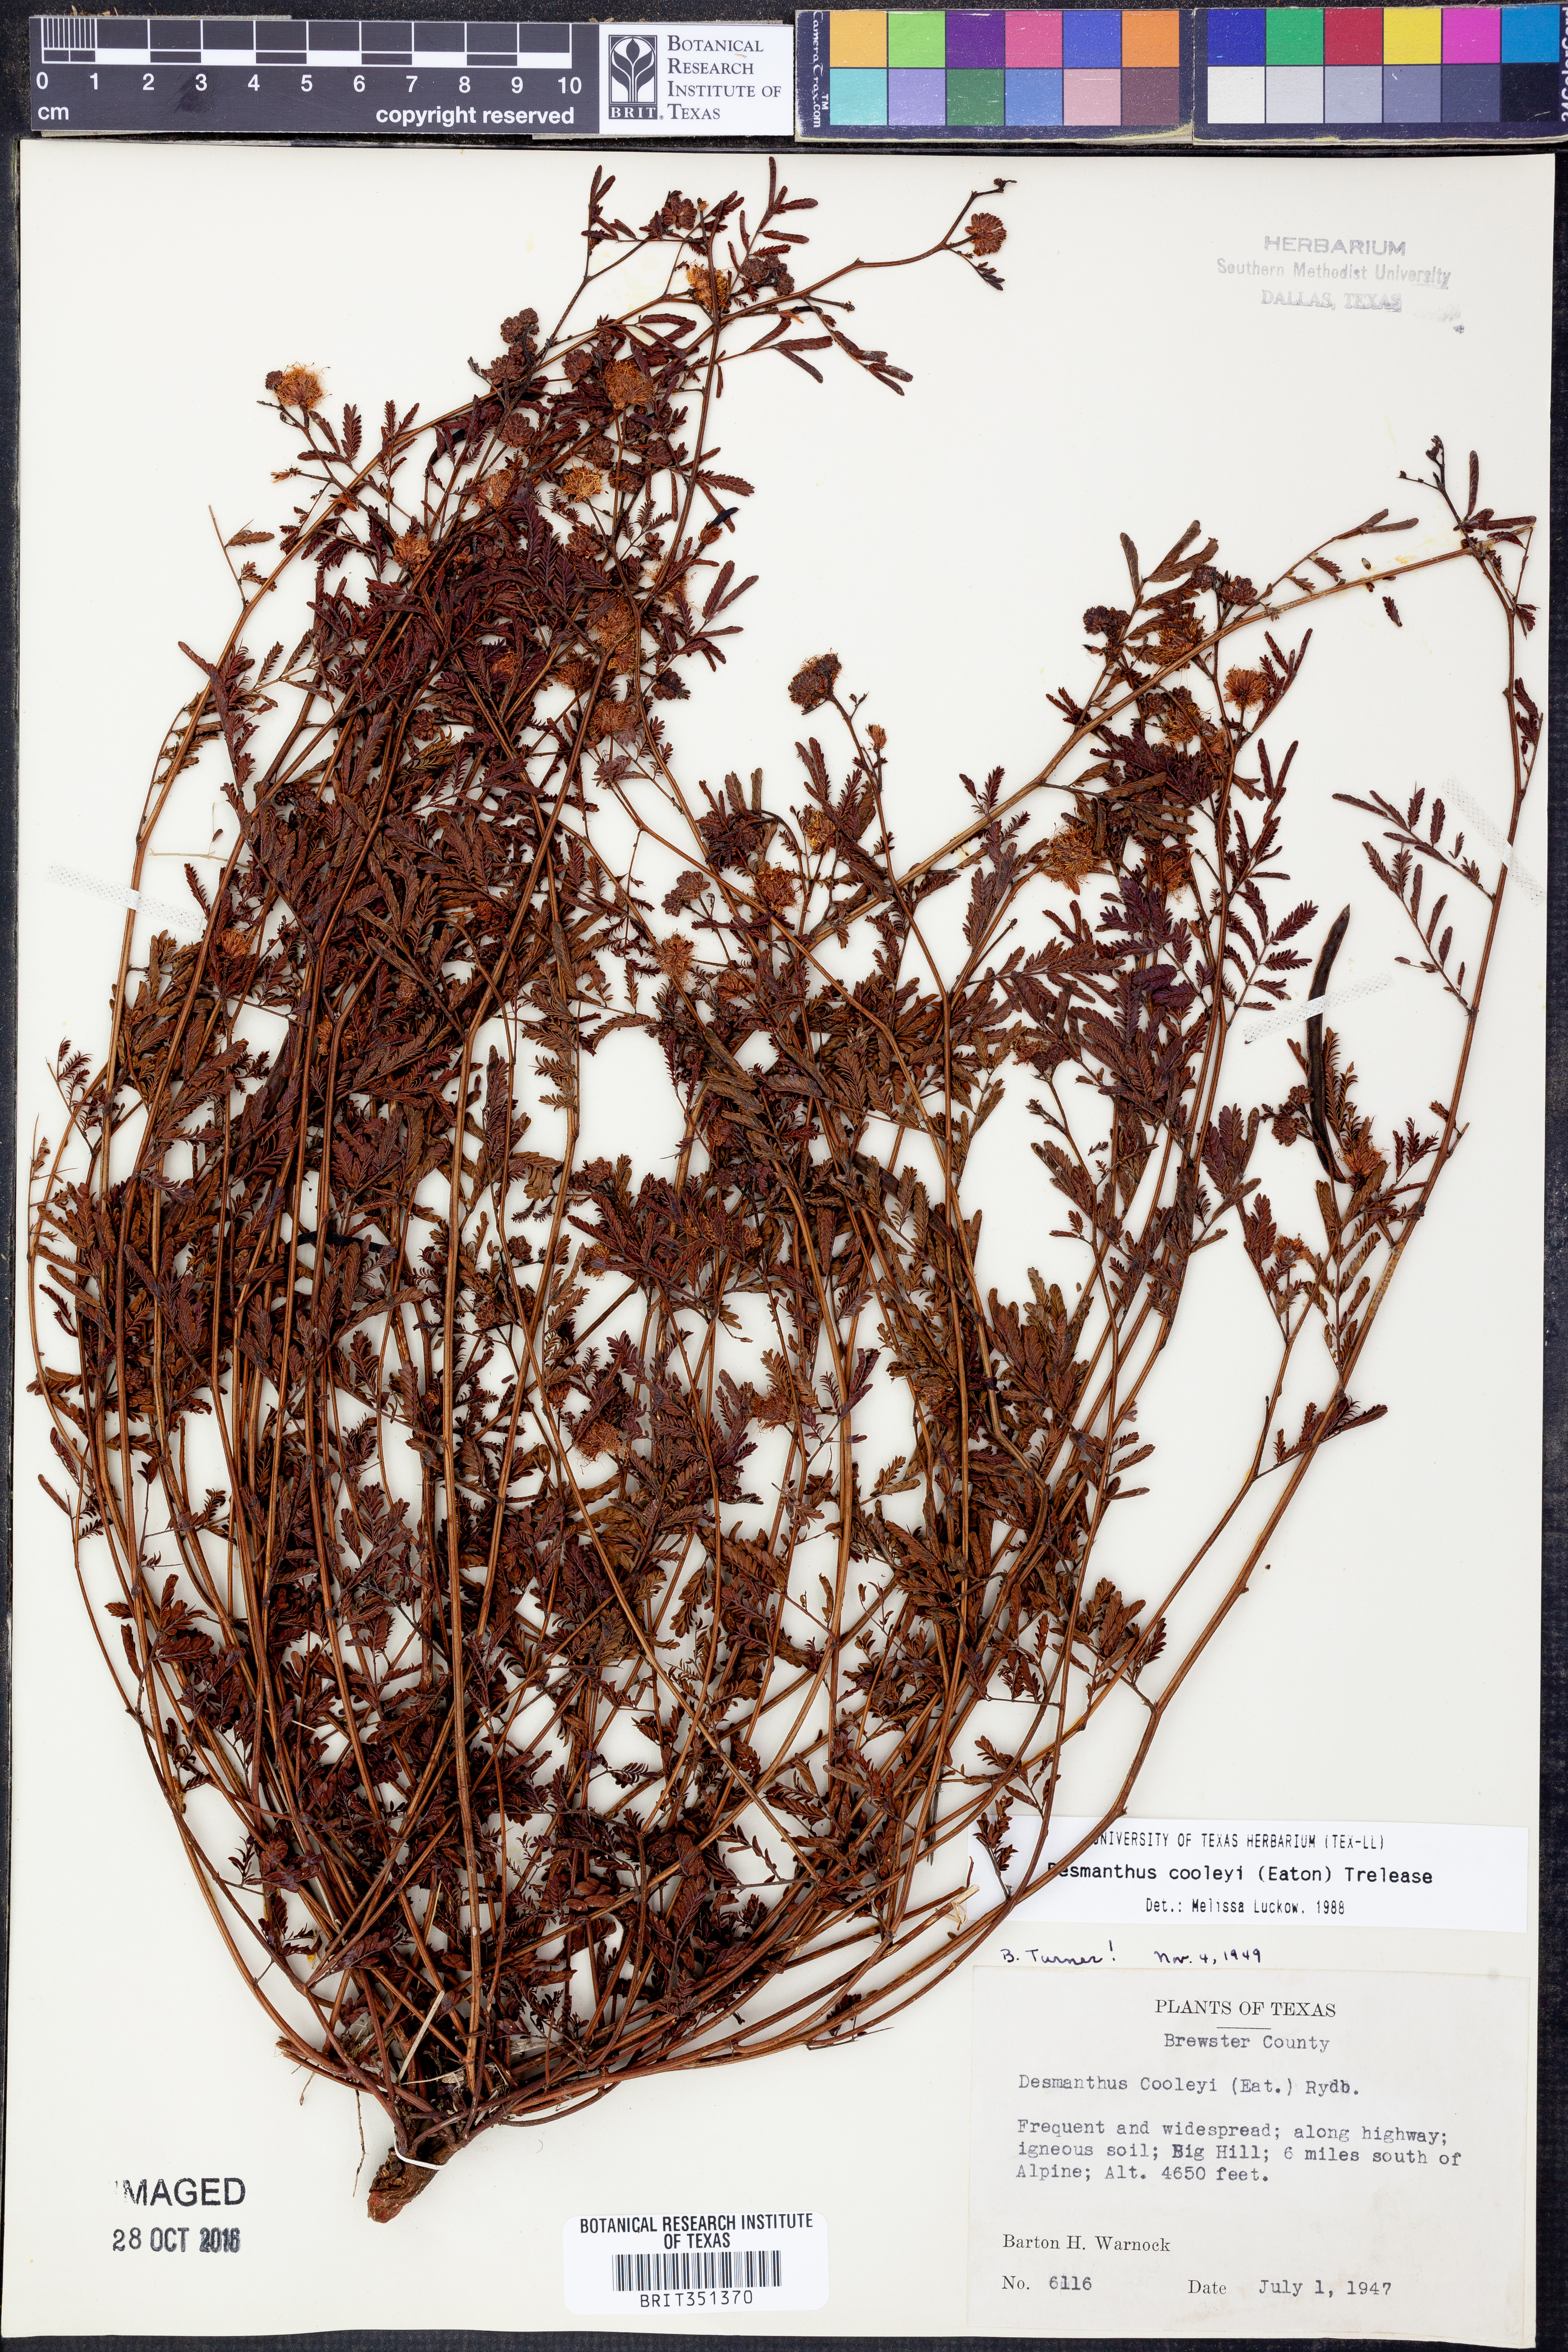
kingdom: Plantae
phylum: Tracheophyta
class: Magnoliopsida
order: Fabales
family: Fabaceae
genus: Desmanthus
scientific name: Desmanthus cooleyi
